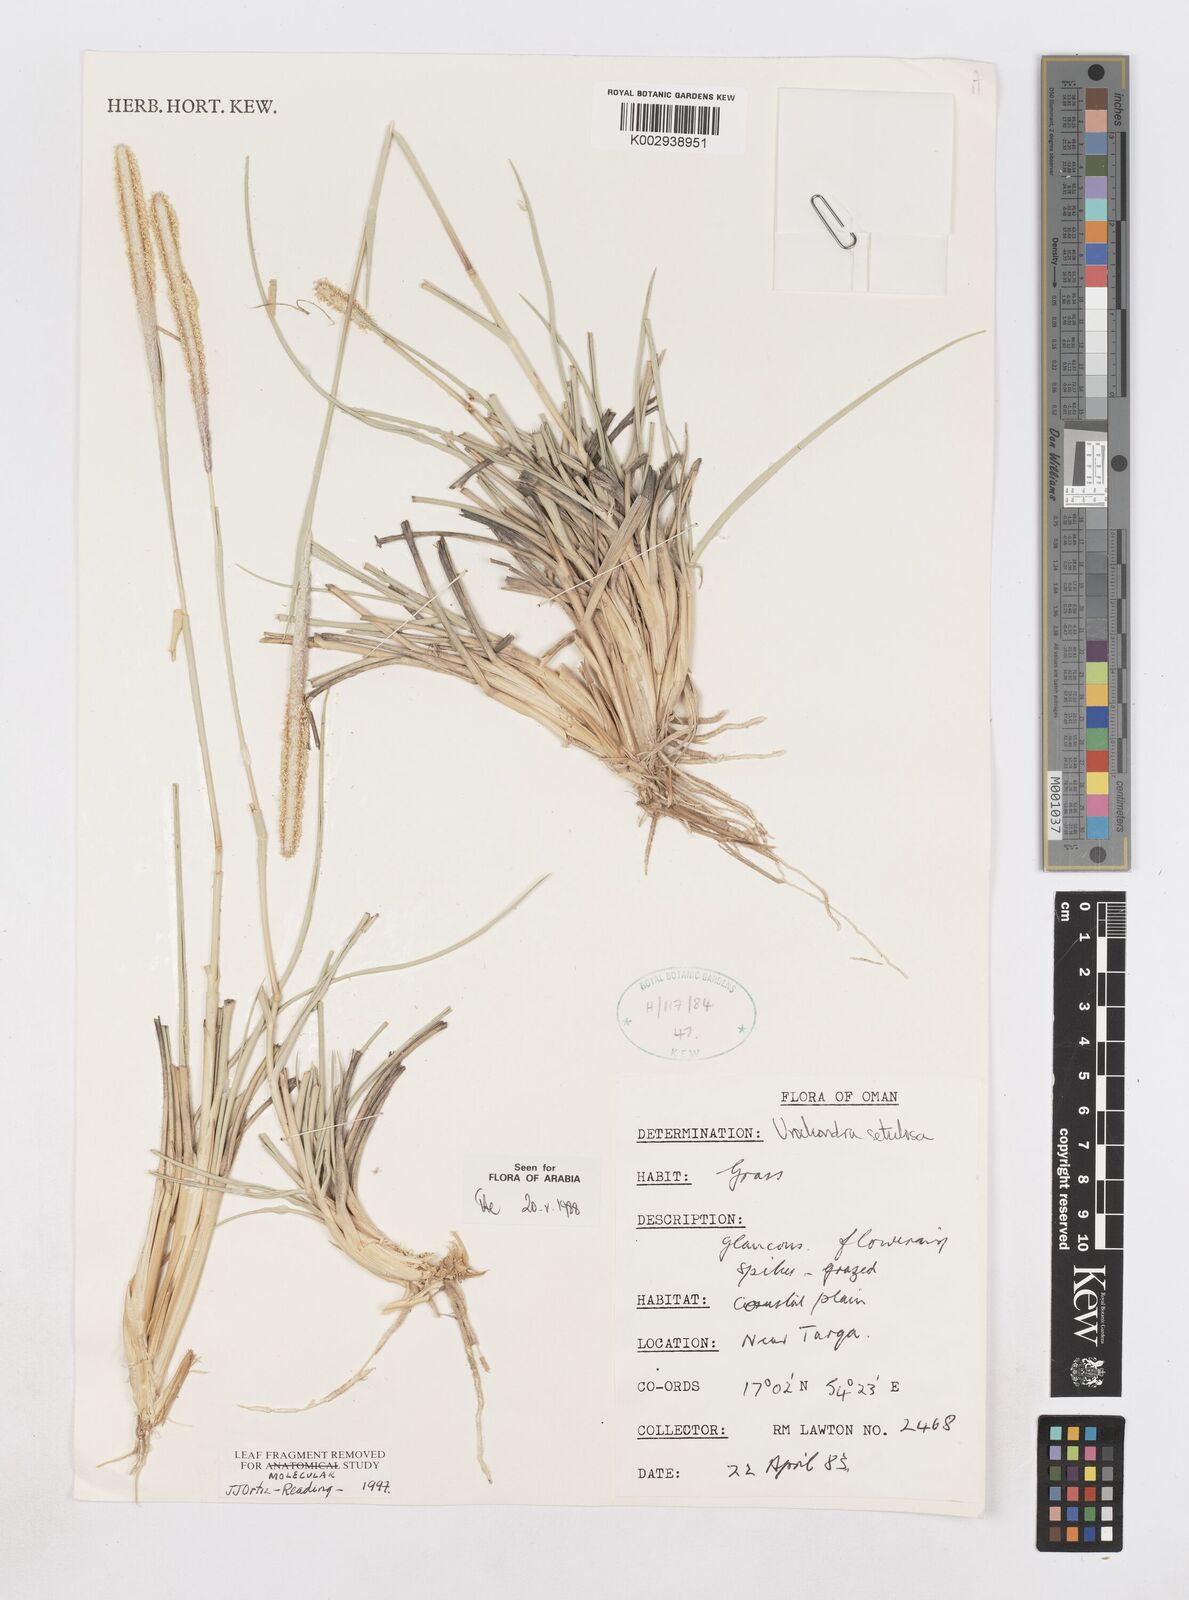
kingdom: Plantae
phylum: Tracheophyta
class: Liliopsida
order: Poales
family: Poaceae
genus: Urochondra
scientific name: Urochondra setulosa
